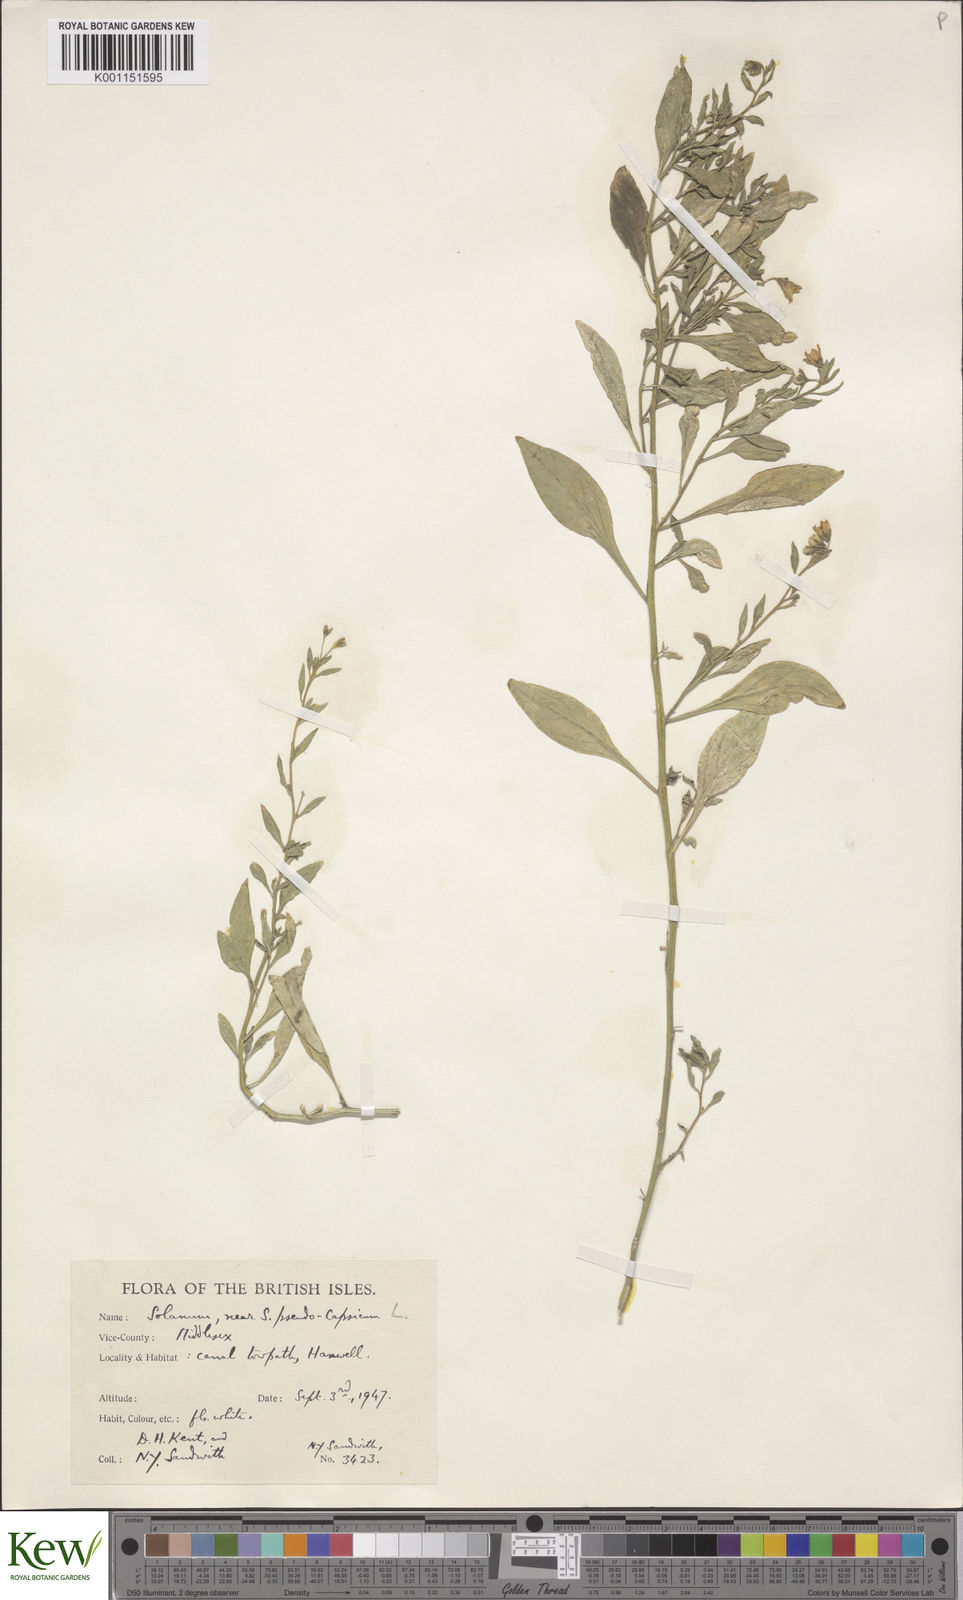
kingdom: Plantae
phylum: Tracheophyta
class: Magnoliopsida
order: Solanales
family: Solanaceae
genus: Solanum
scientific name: Solanum pygmaeum
